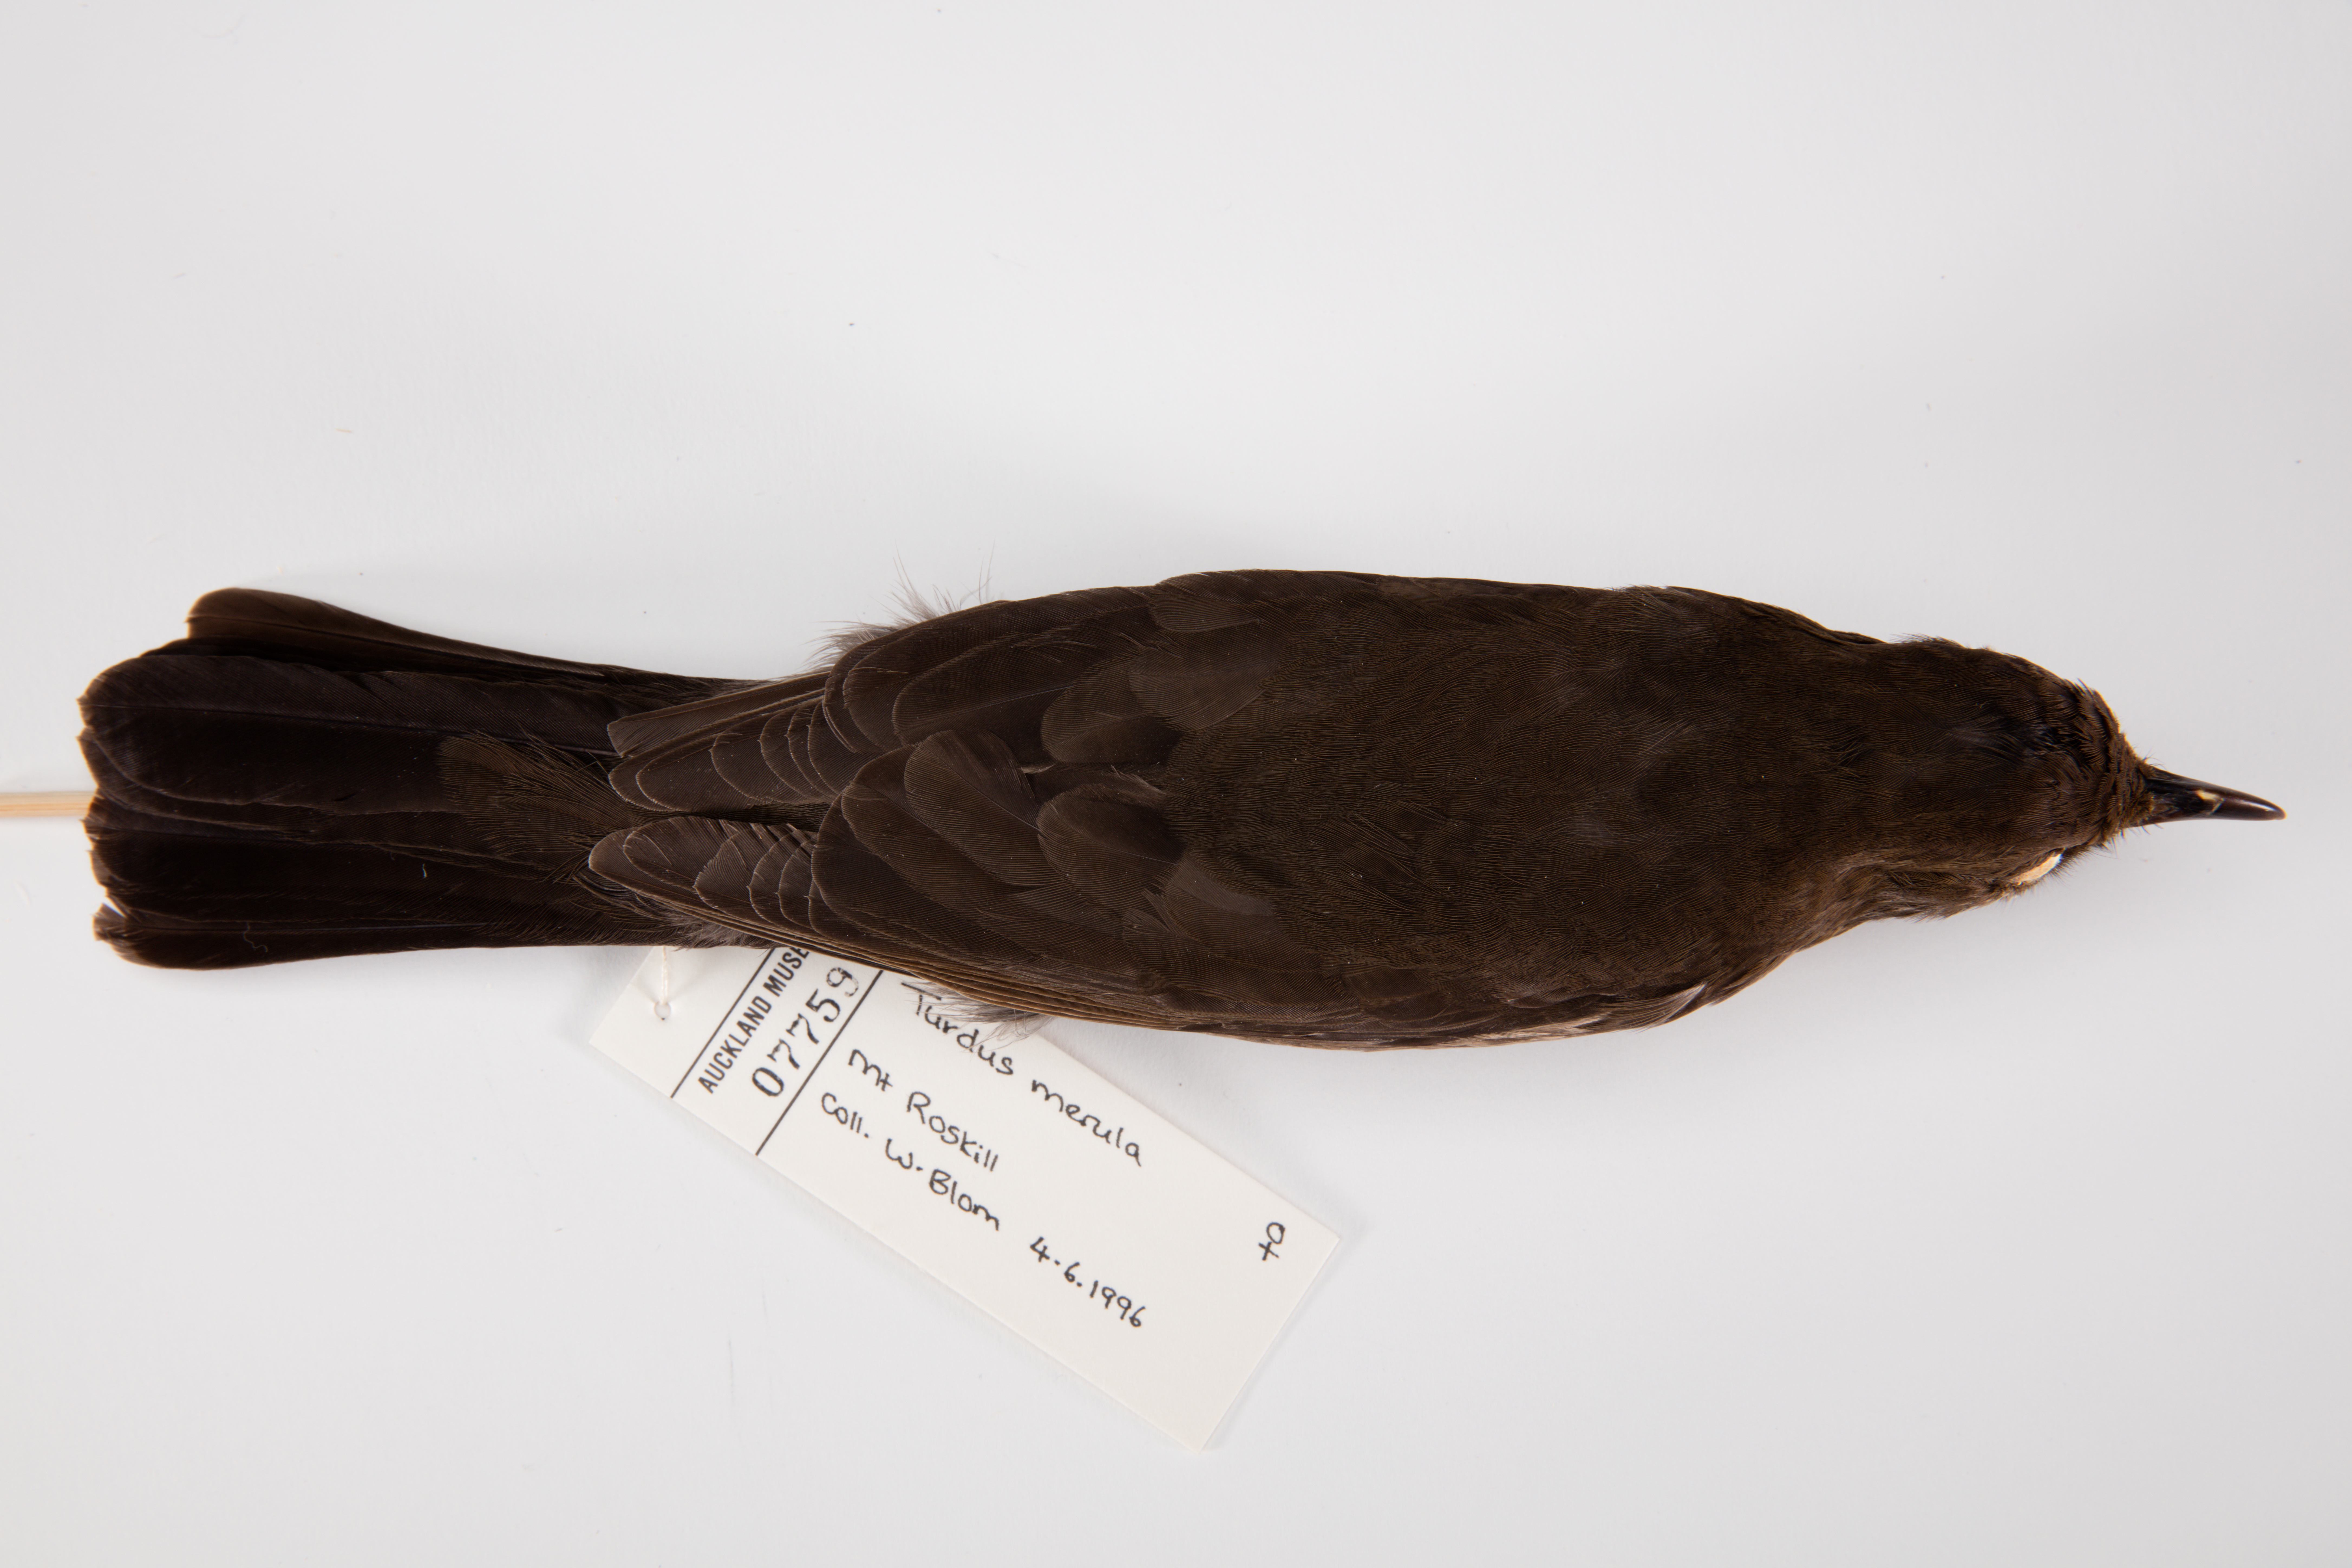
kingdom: Animalia
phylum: Chordata
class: Aves
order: Passeriformes
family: Turdidae
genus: Turdus
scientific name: Turdus merula
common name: Common blackbird
